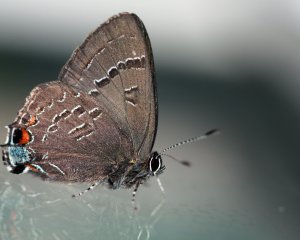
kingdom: Animalia
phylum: Arthropoda
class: Insecta
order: Lepidoptera
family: Lycaenidae
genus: Satyrium
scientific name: Satyrium calanus
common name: Banded Hairstreak
